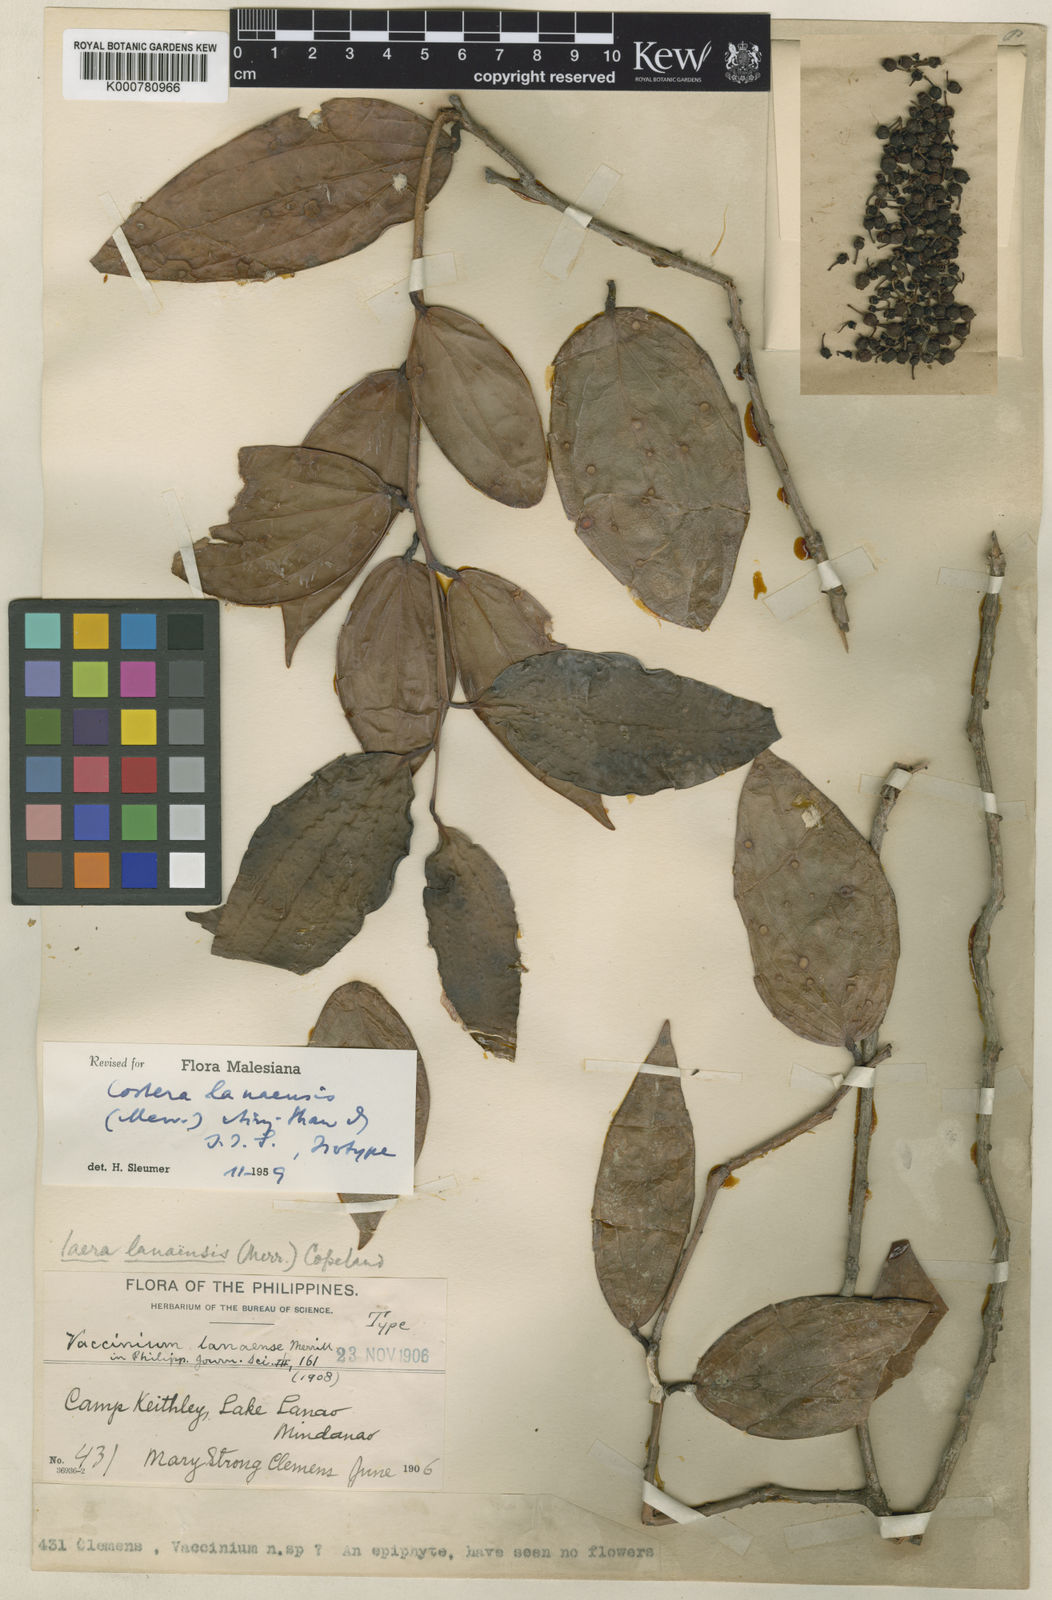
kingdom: Plantae
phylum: Tracheophyta
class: Magnoliopsida
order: Ericales
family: Ericaceae
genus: Costera
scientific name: Costera lanaensis
